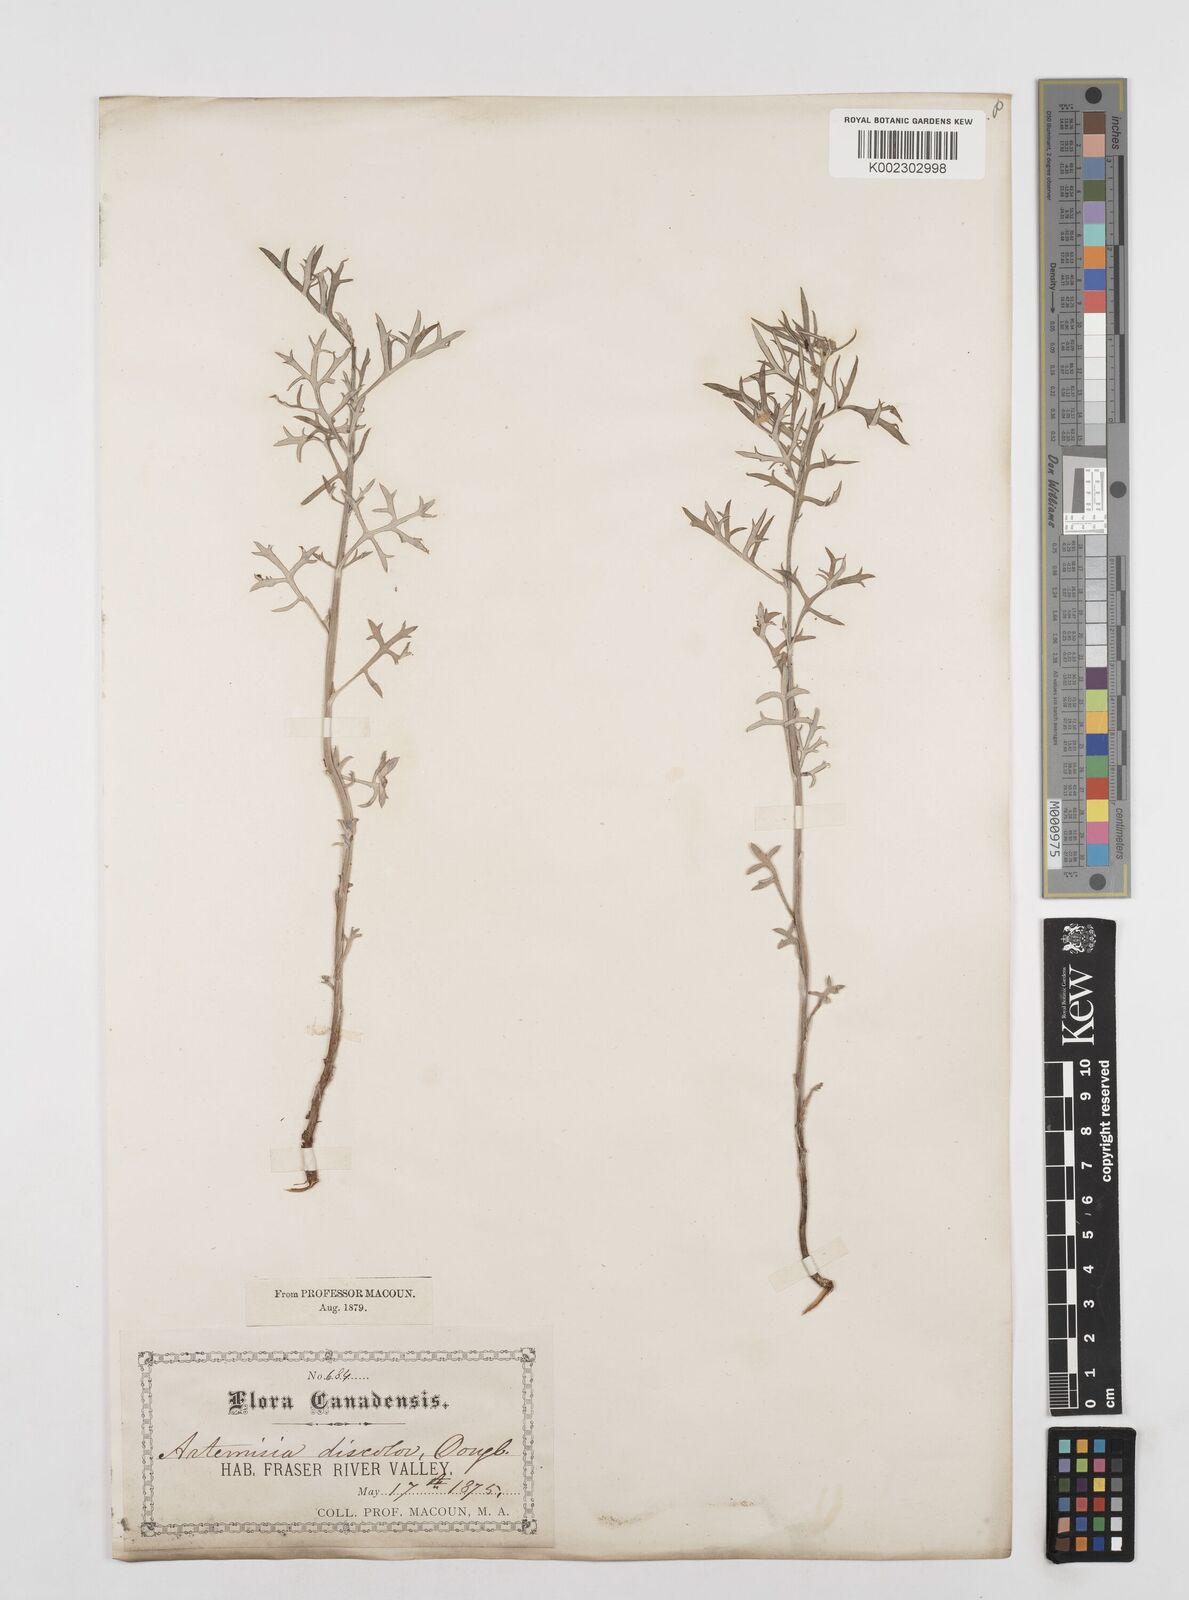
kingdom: Plantae
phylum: Tracheophyta
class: Magnoliopsida
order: Asterales
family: Asteraceae
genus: Artemisia
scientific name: Artemisia michauxiana
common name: Lemon sagewort
